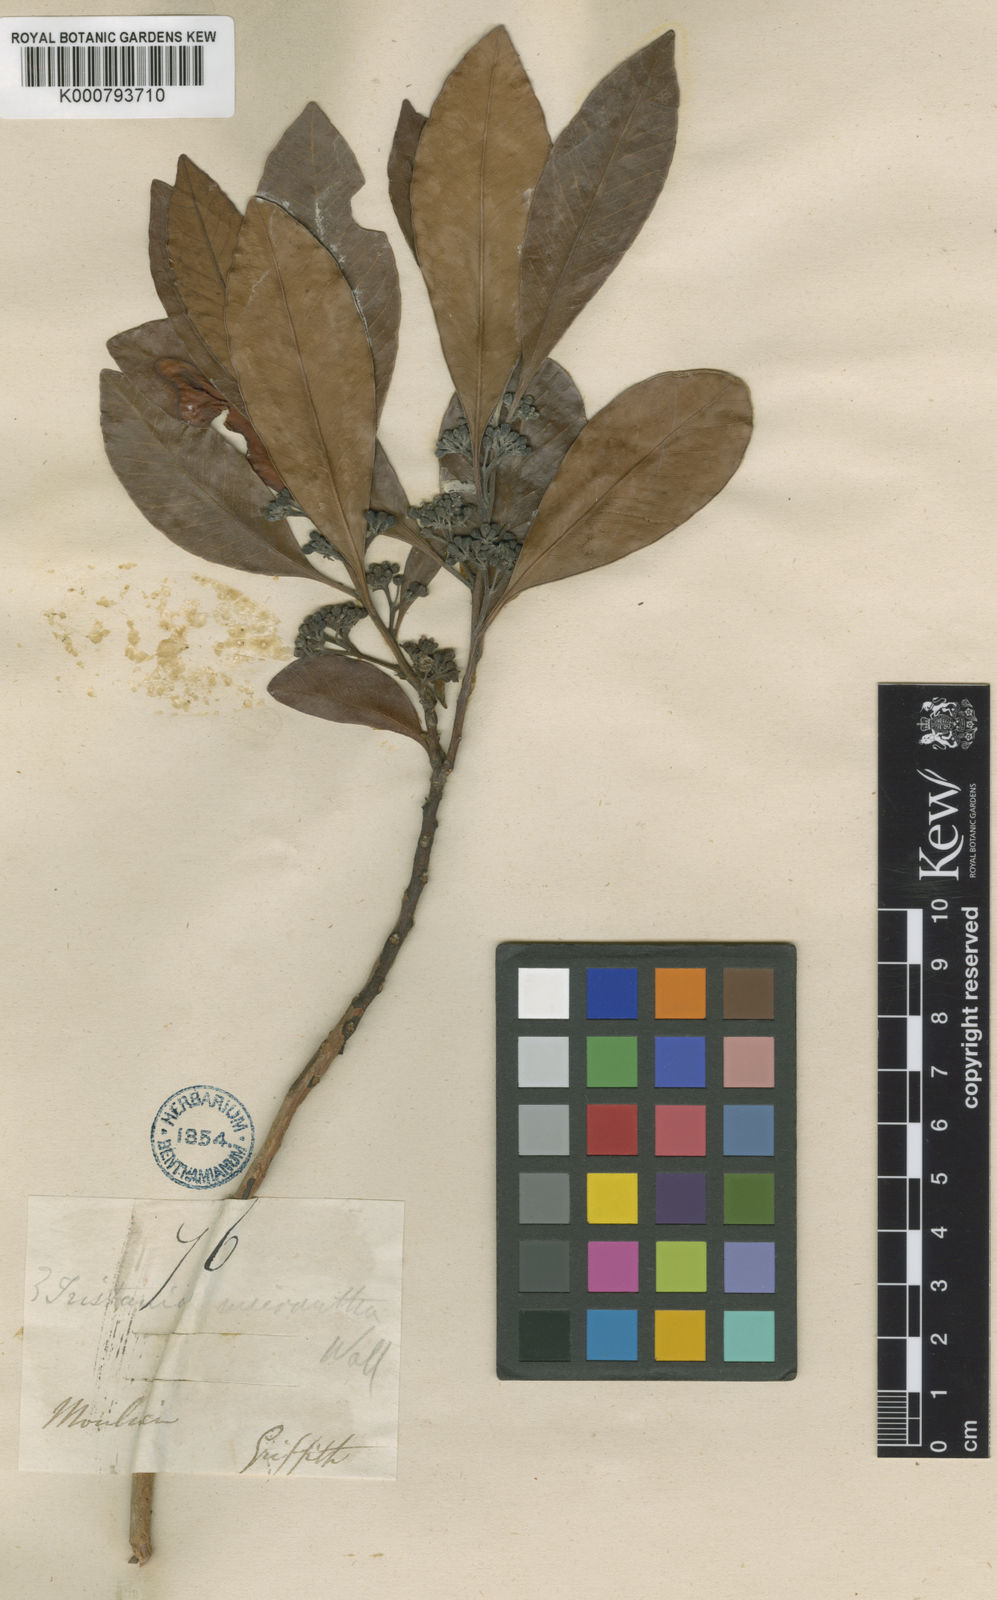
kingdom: Plantae
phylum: Tracheophyta
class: Magnoliopsida
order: Myrtales
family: Myrtaceae
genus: Tristaniopsis
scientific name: Tristaniopsis burmanica
